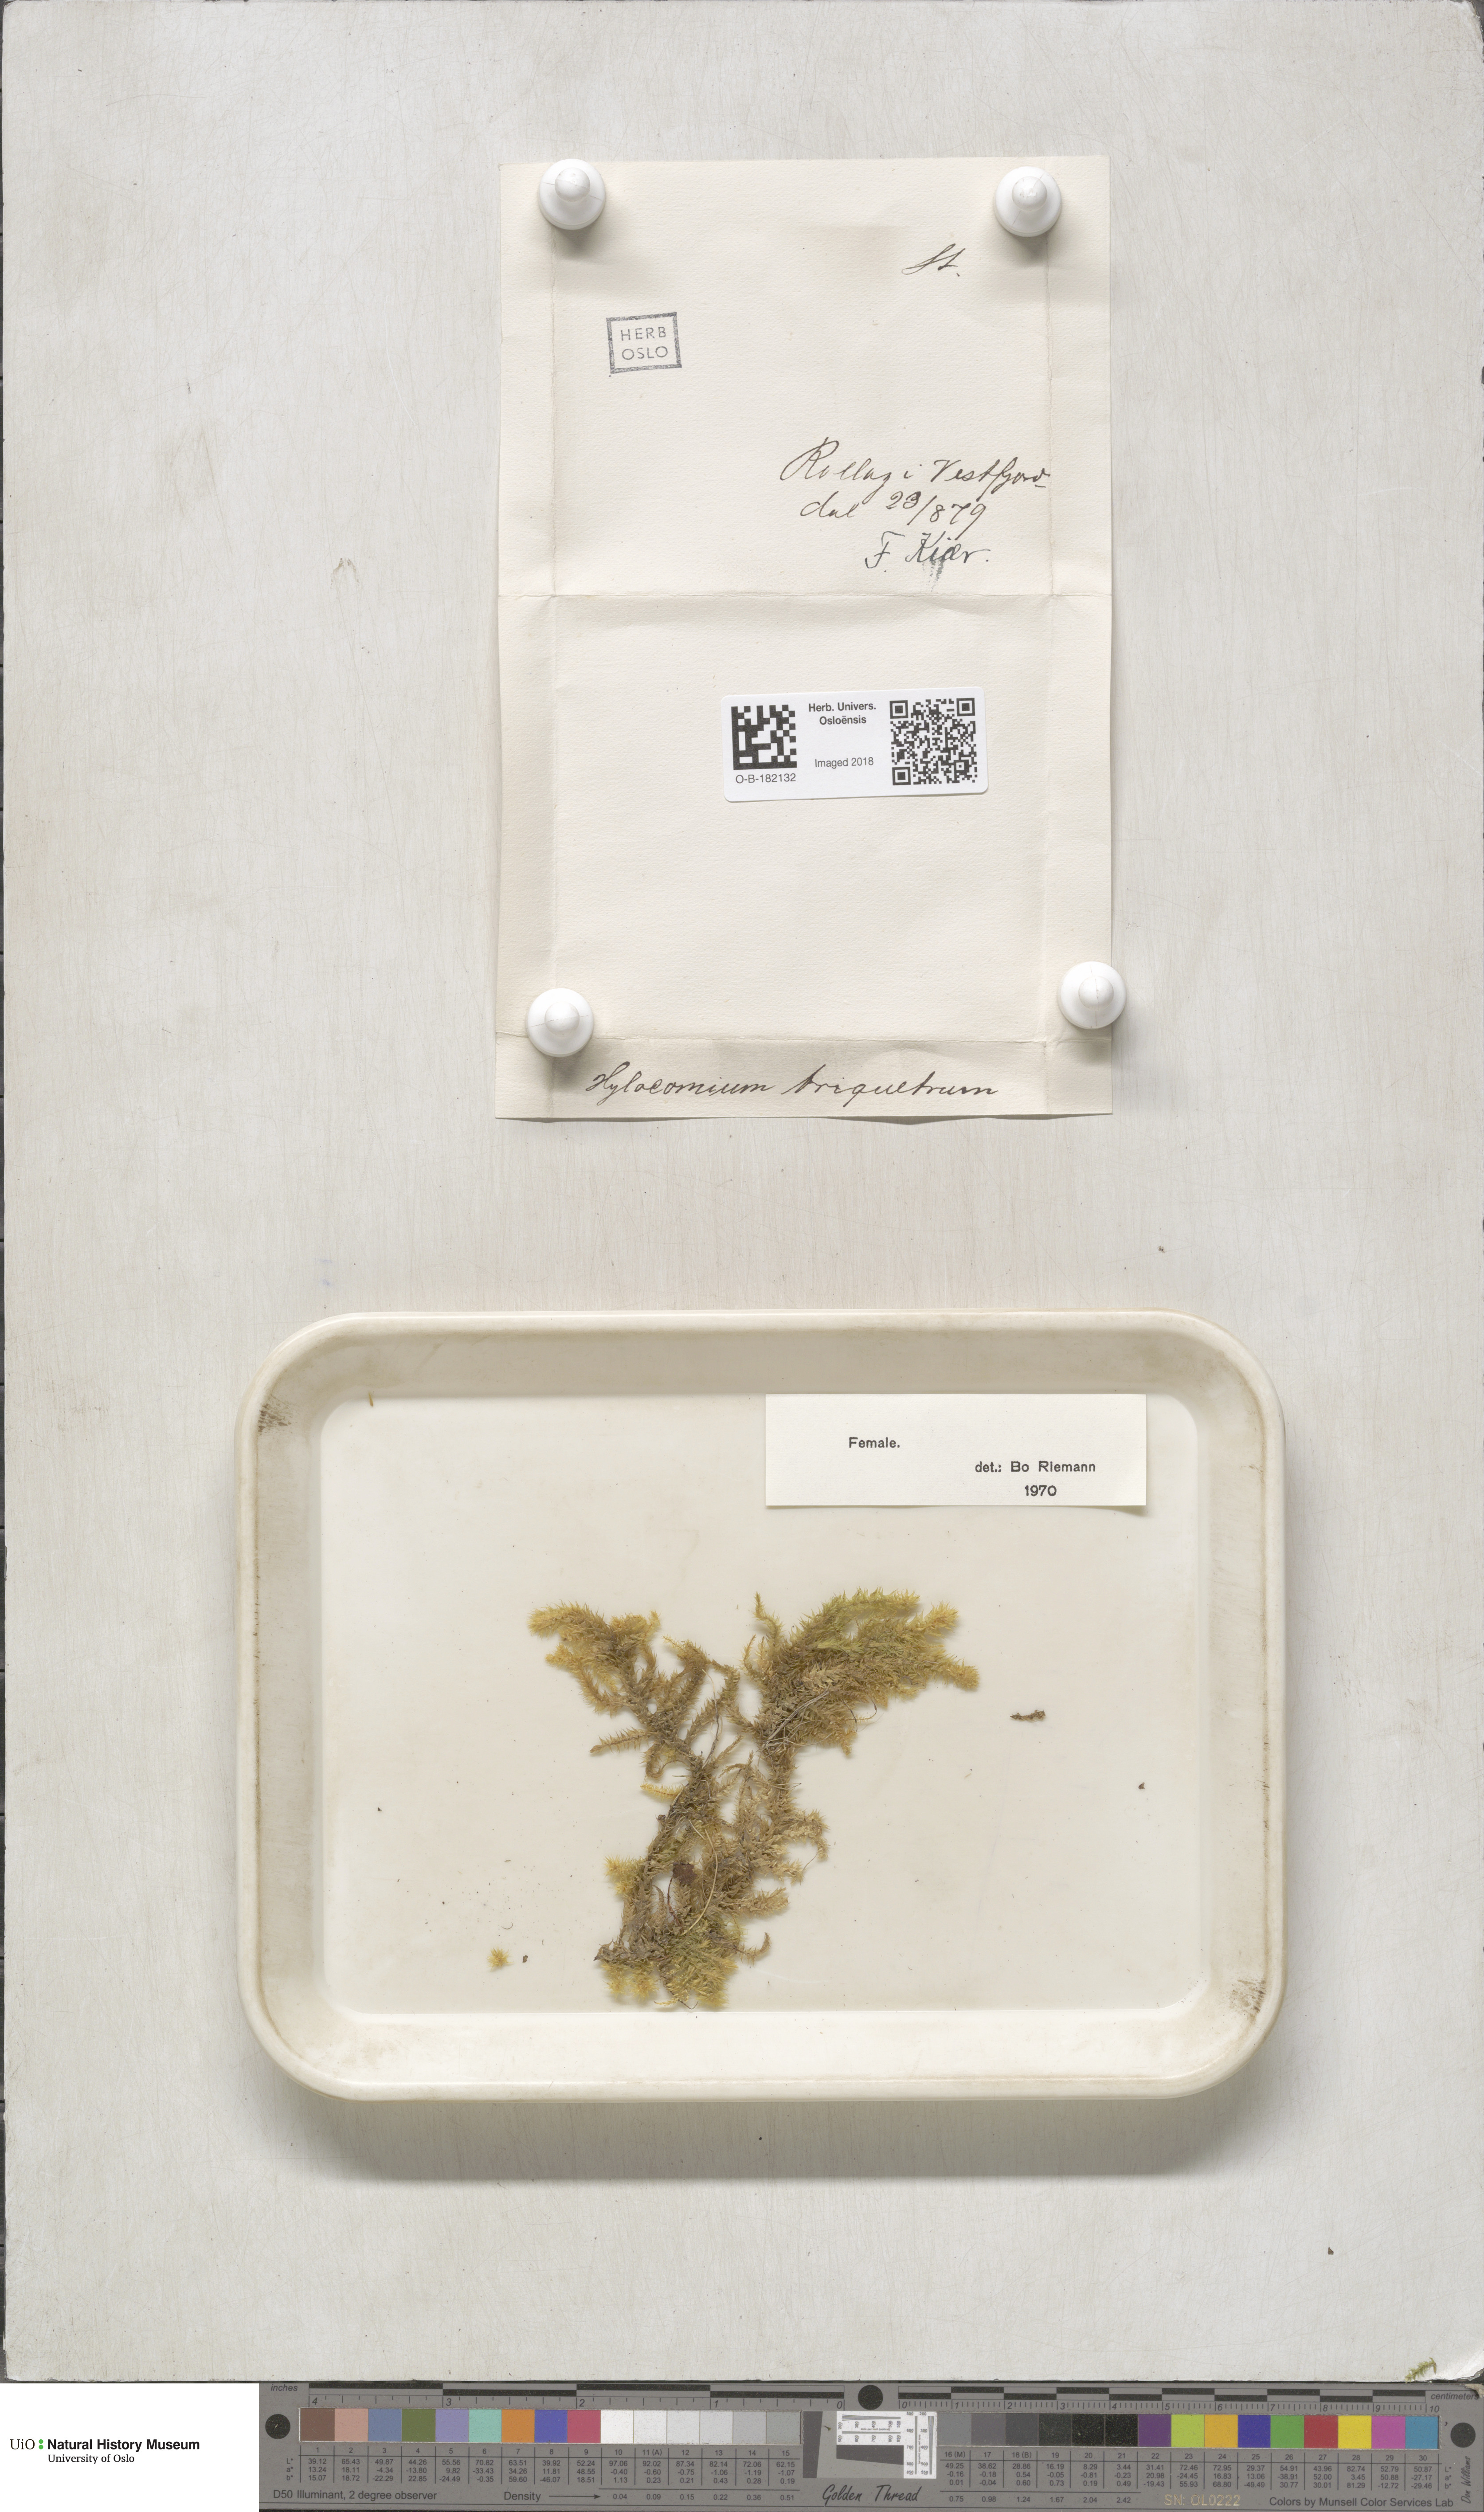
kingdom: Plantae
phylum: Bryophyta
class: Bryopsida
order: Hypnales
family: Hylocomiaceae
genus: Hylocomiadelphus
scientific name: Hylocomiadelphus triquetrus
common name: Rough goose neck moss
